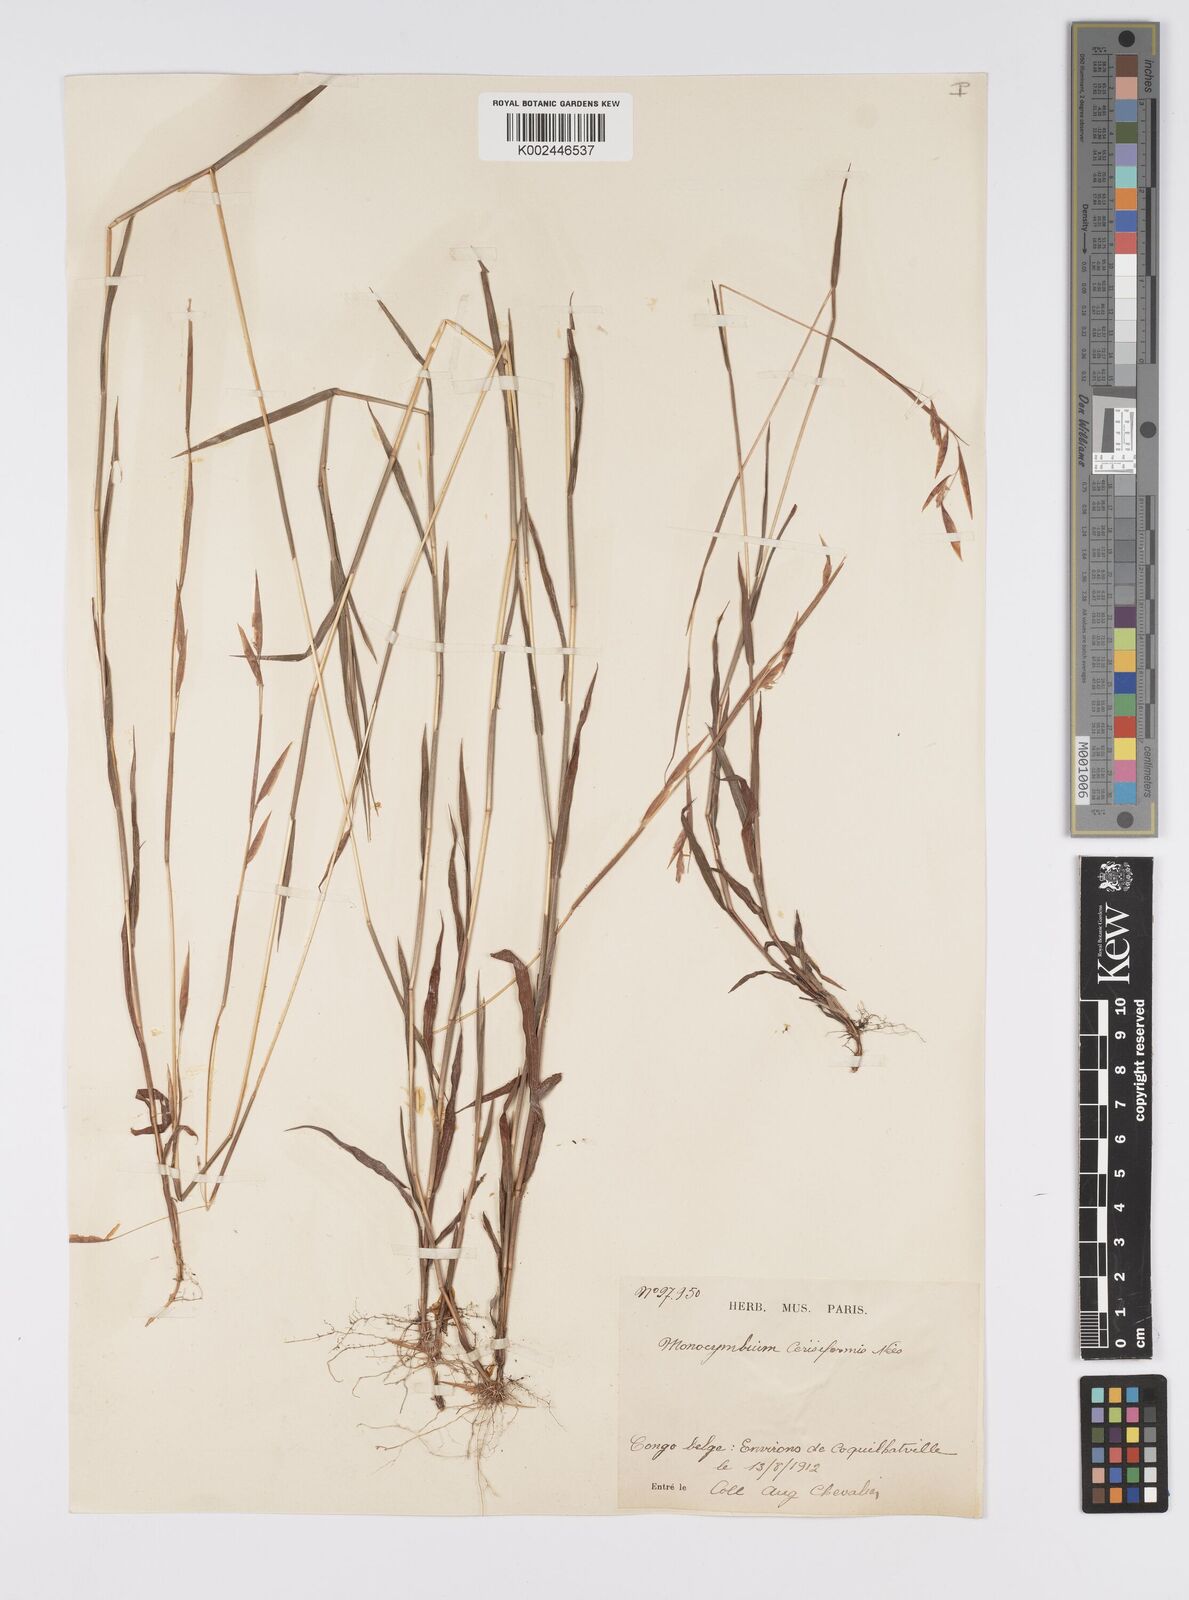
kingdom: Plantae
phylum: Tracheophyta
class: Liliopsida
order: Poales
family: Poaceae
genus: Monocymbium
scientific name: Monocymbium ceresiiforme
